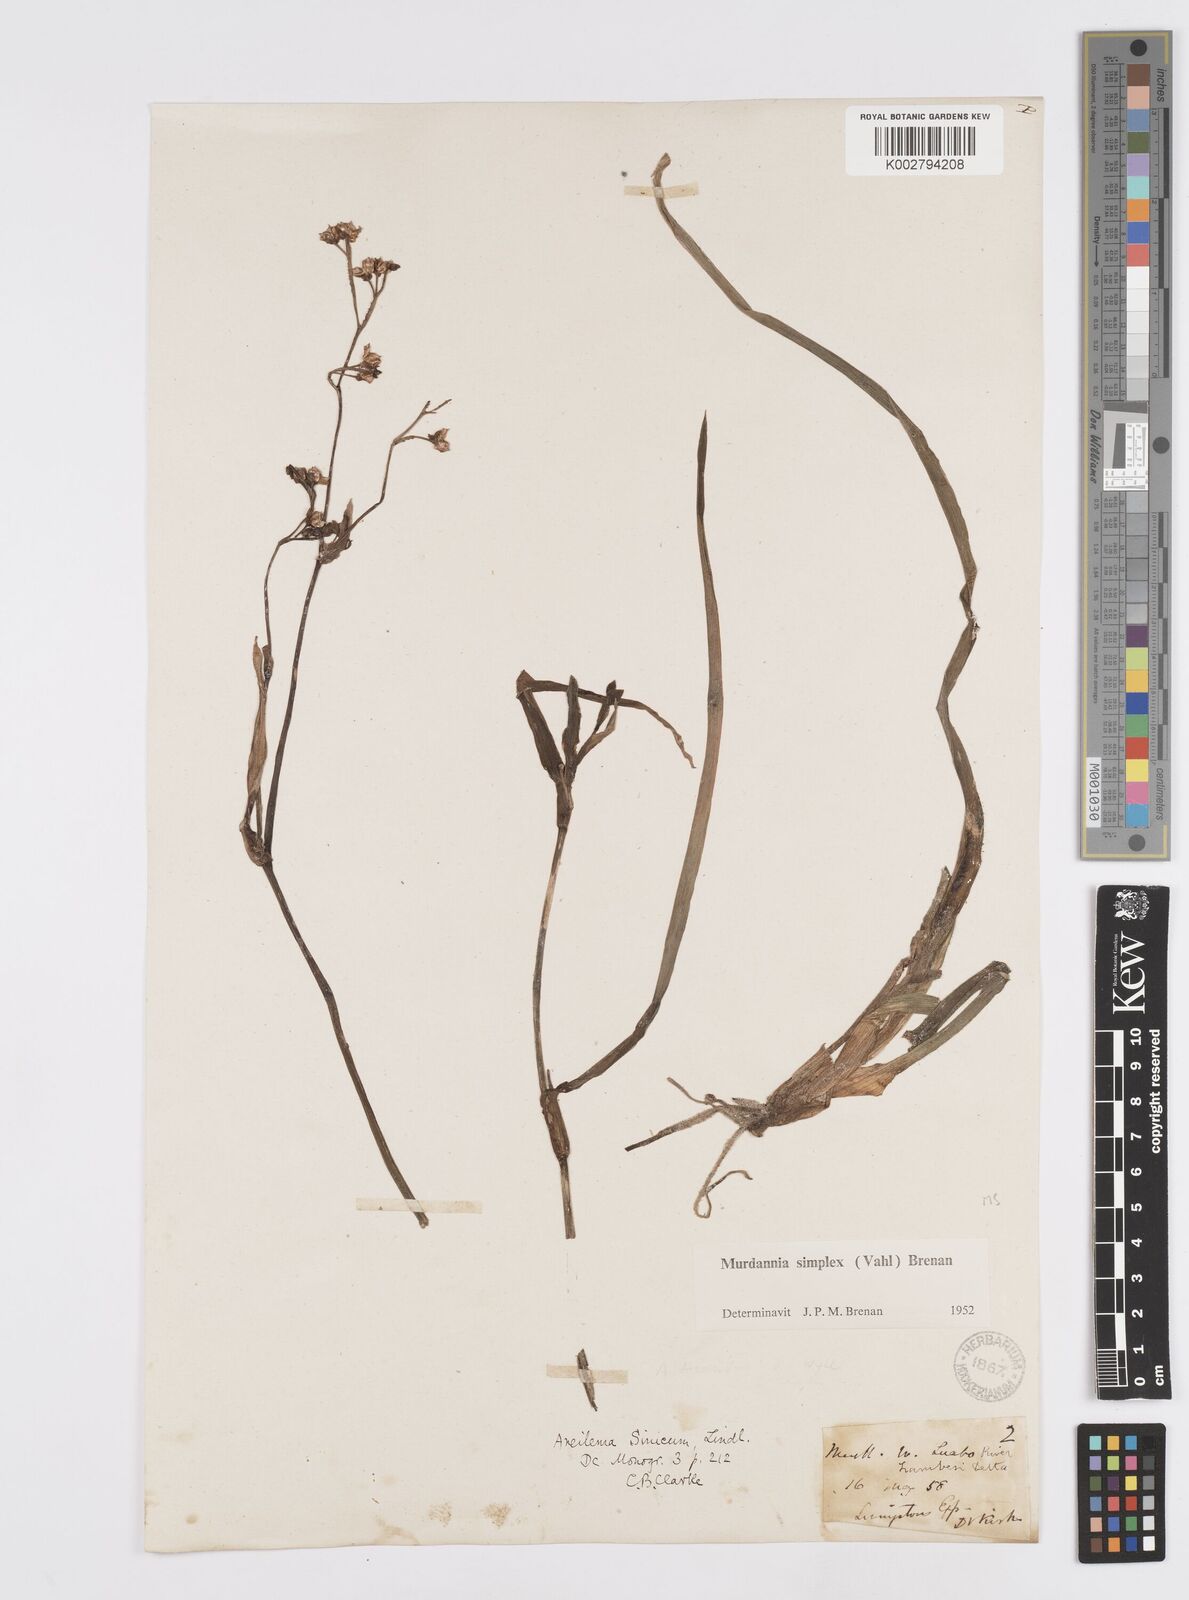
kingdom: Plantae
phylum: Tracheophyta
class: Liliopsida
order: Commelinales
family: Commelinaceae
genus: Murdannia
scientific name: Murdannia simplex
